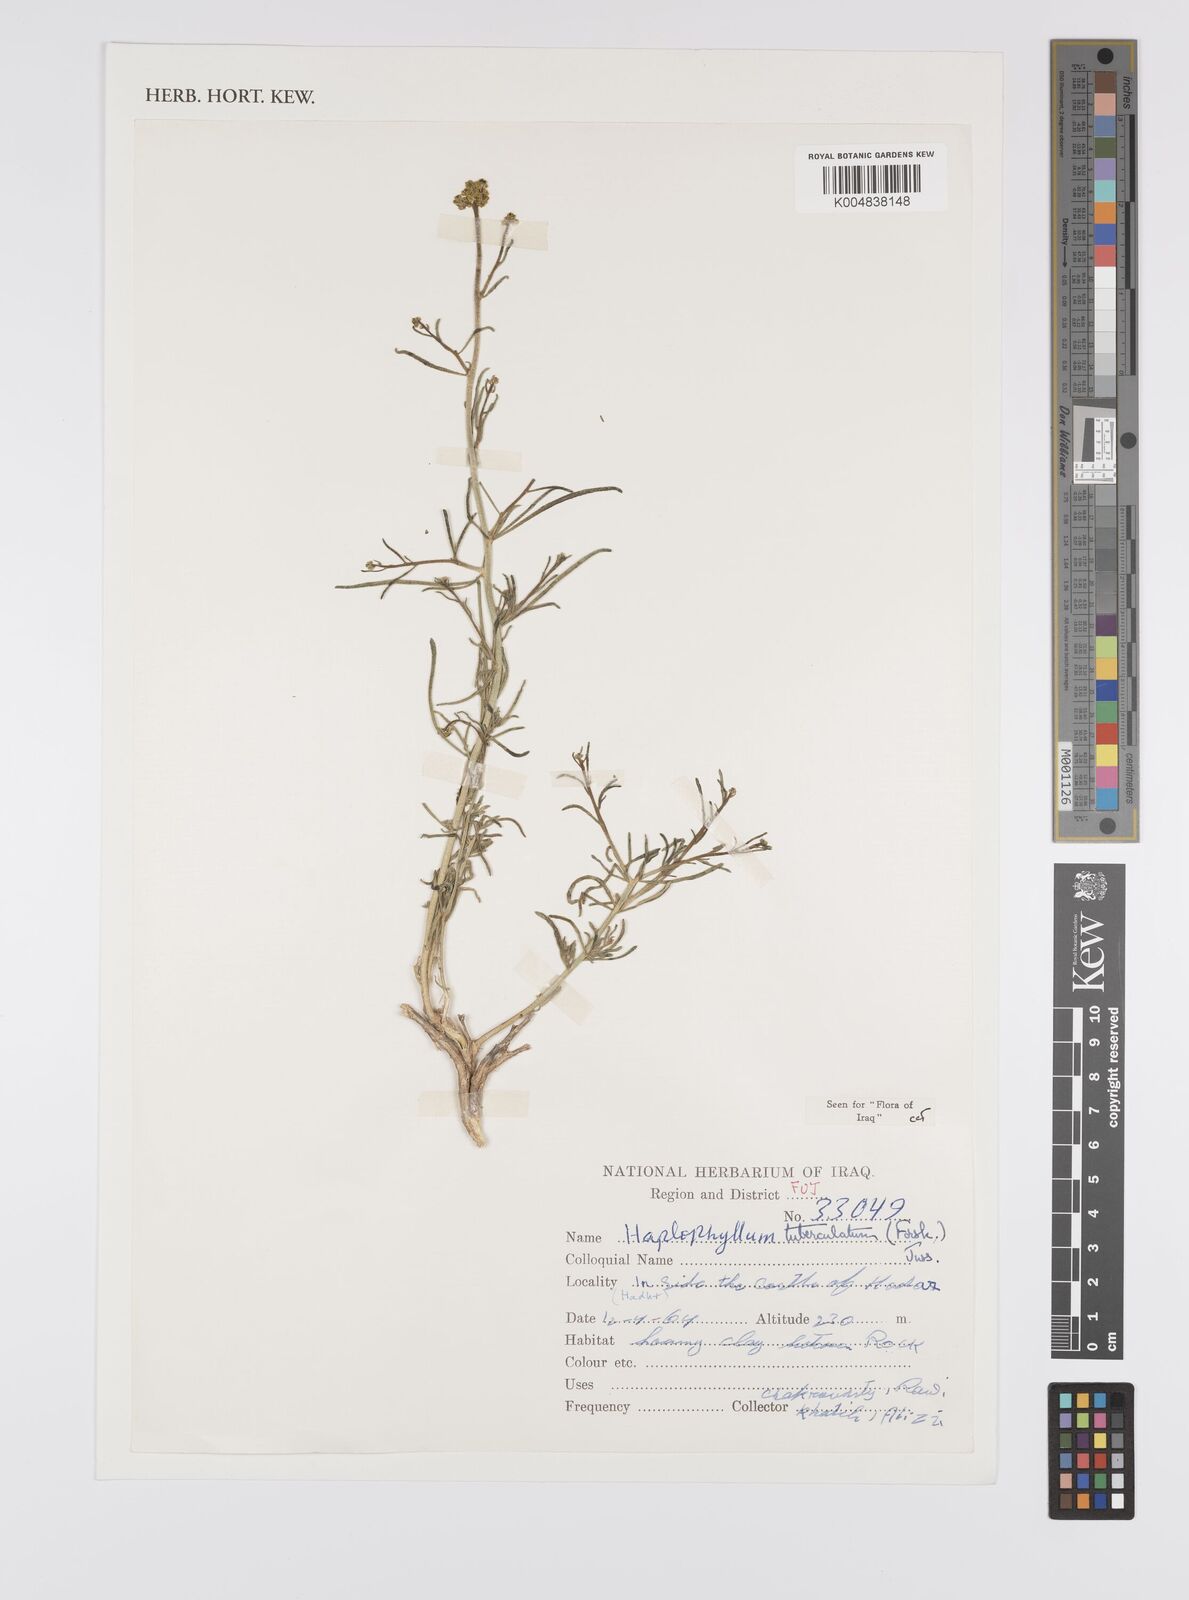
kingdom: Plantae
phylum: Tracheophyta
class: Magnoliopsida
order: Sapindales
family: Rutaceae
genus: Haplophyllum
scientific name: Haplophyllum tuberculatum
